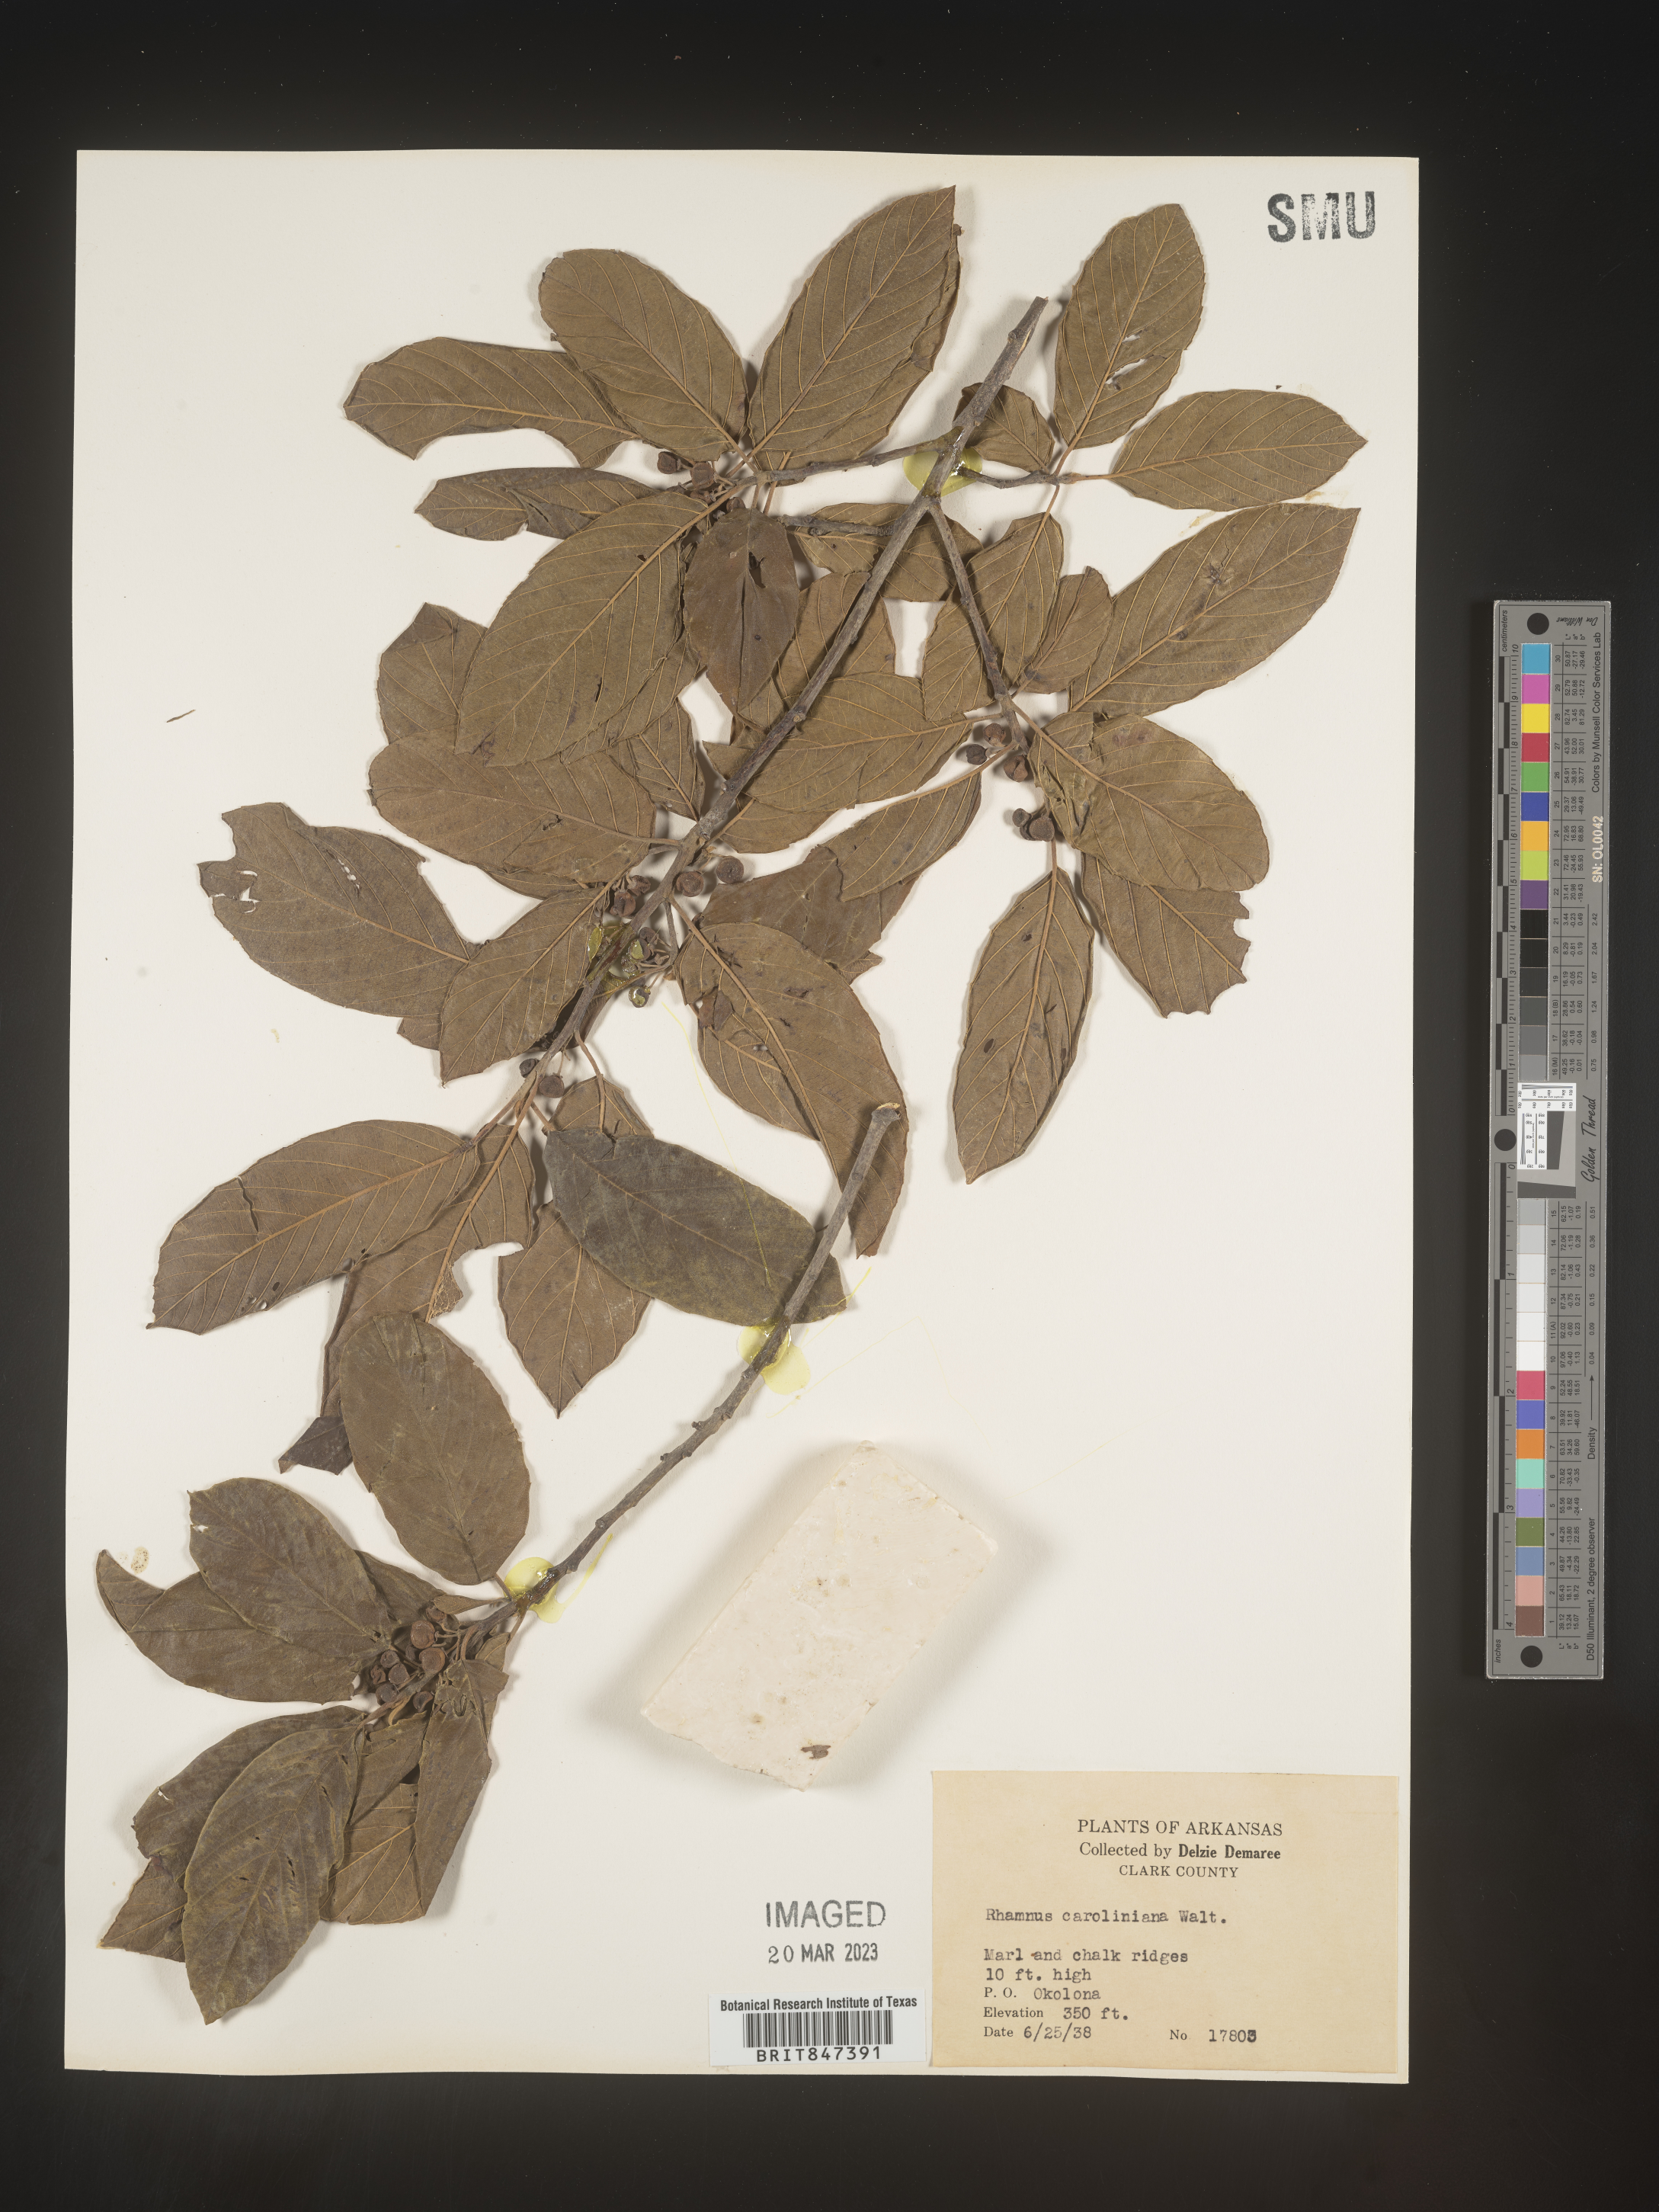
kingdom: Plantae
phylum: Tracheophyta
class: Magnoliopsida
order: Rosales
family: Rhamnaceae
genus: Frangula
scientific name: Frangula caroliniana
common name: Carolina buckthorn
